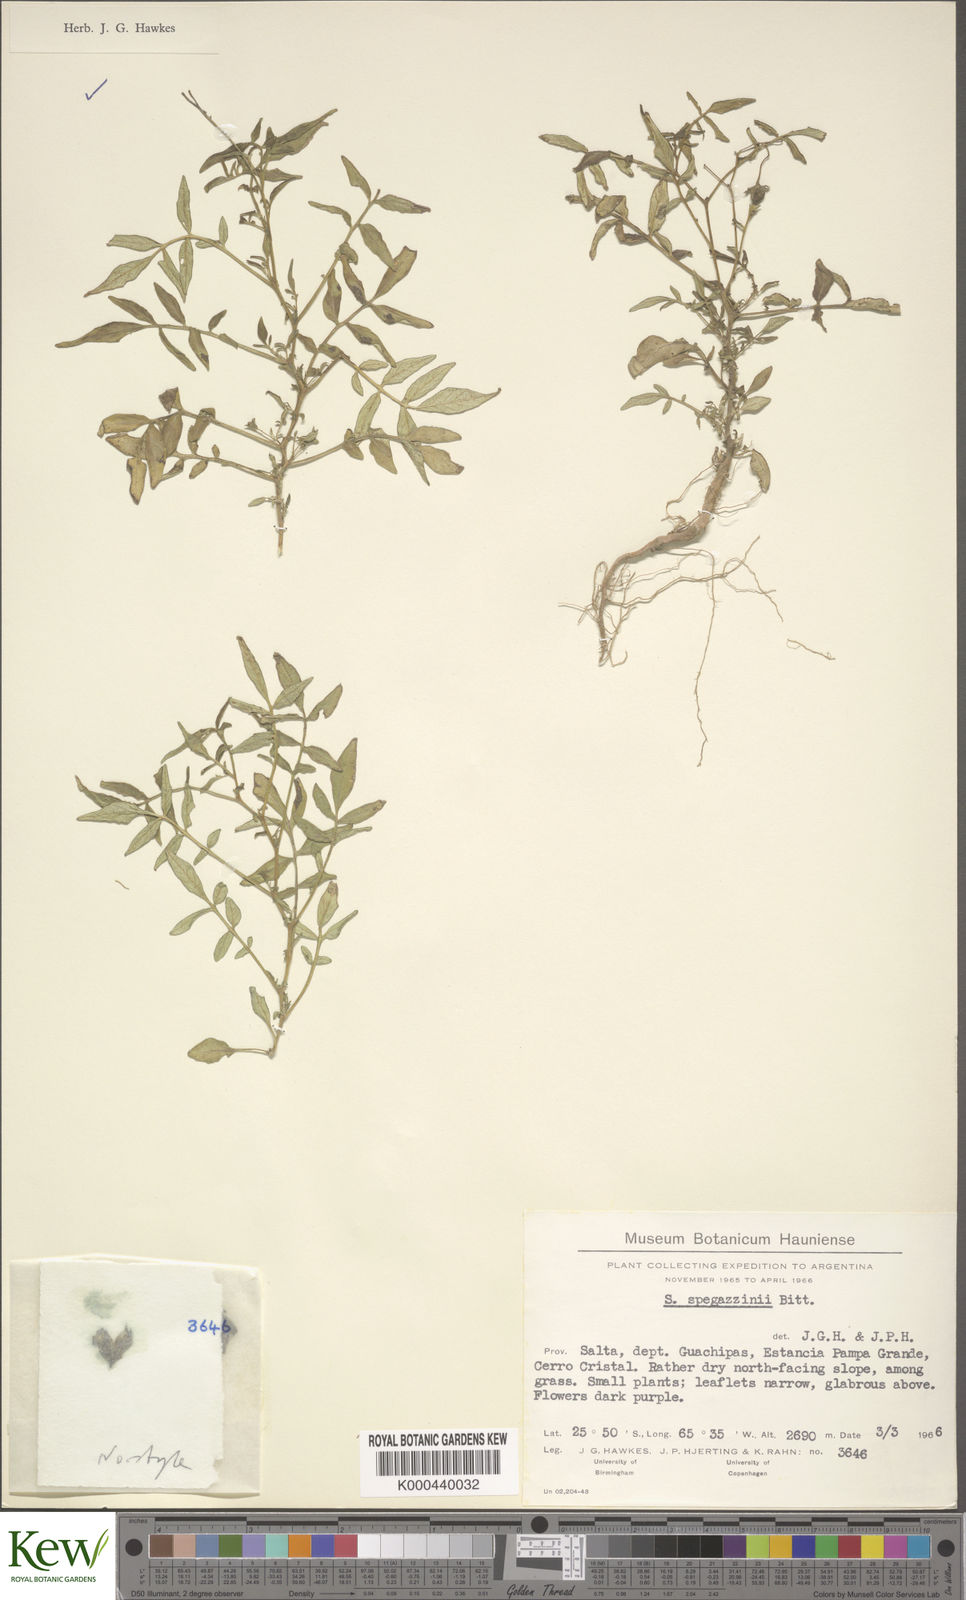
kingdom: Plantae
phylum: Tracheophyta
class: Magnoliopsida
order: Solanales
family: Solanaceae
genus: Solanum
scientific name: Solanum brevicaule
